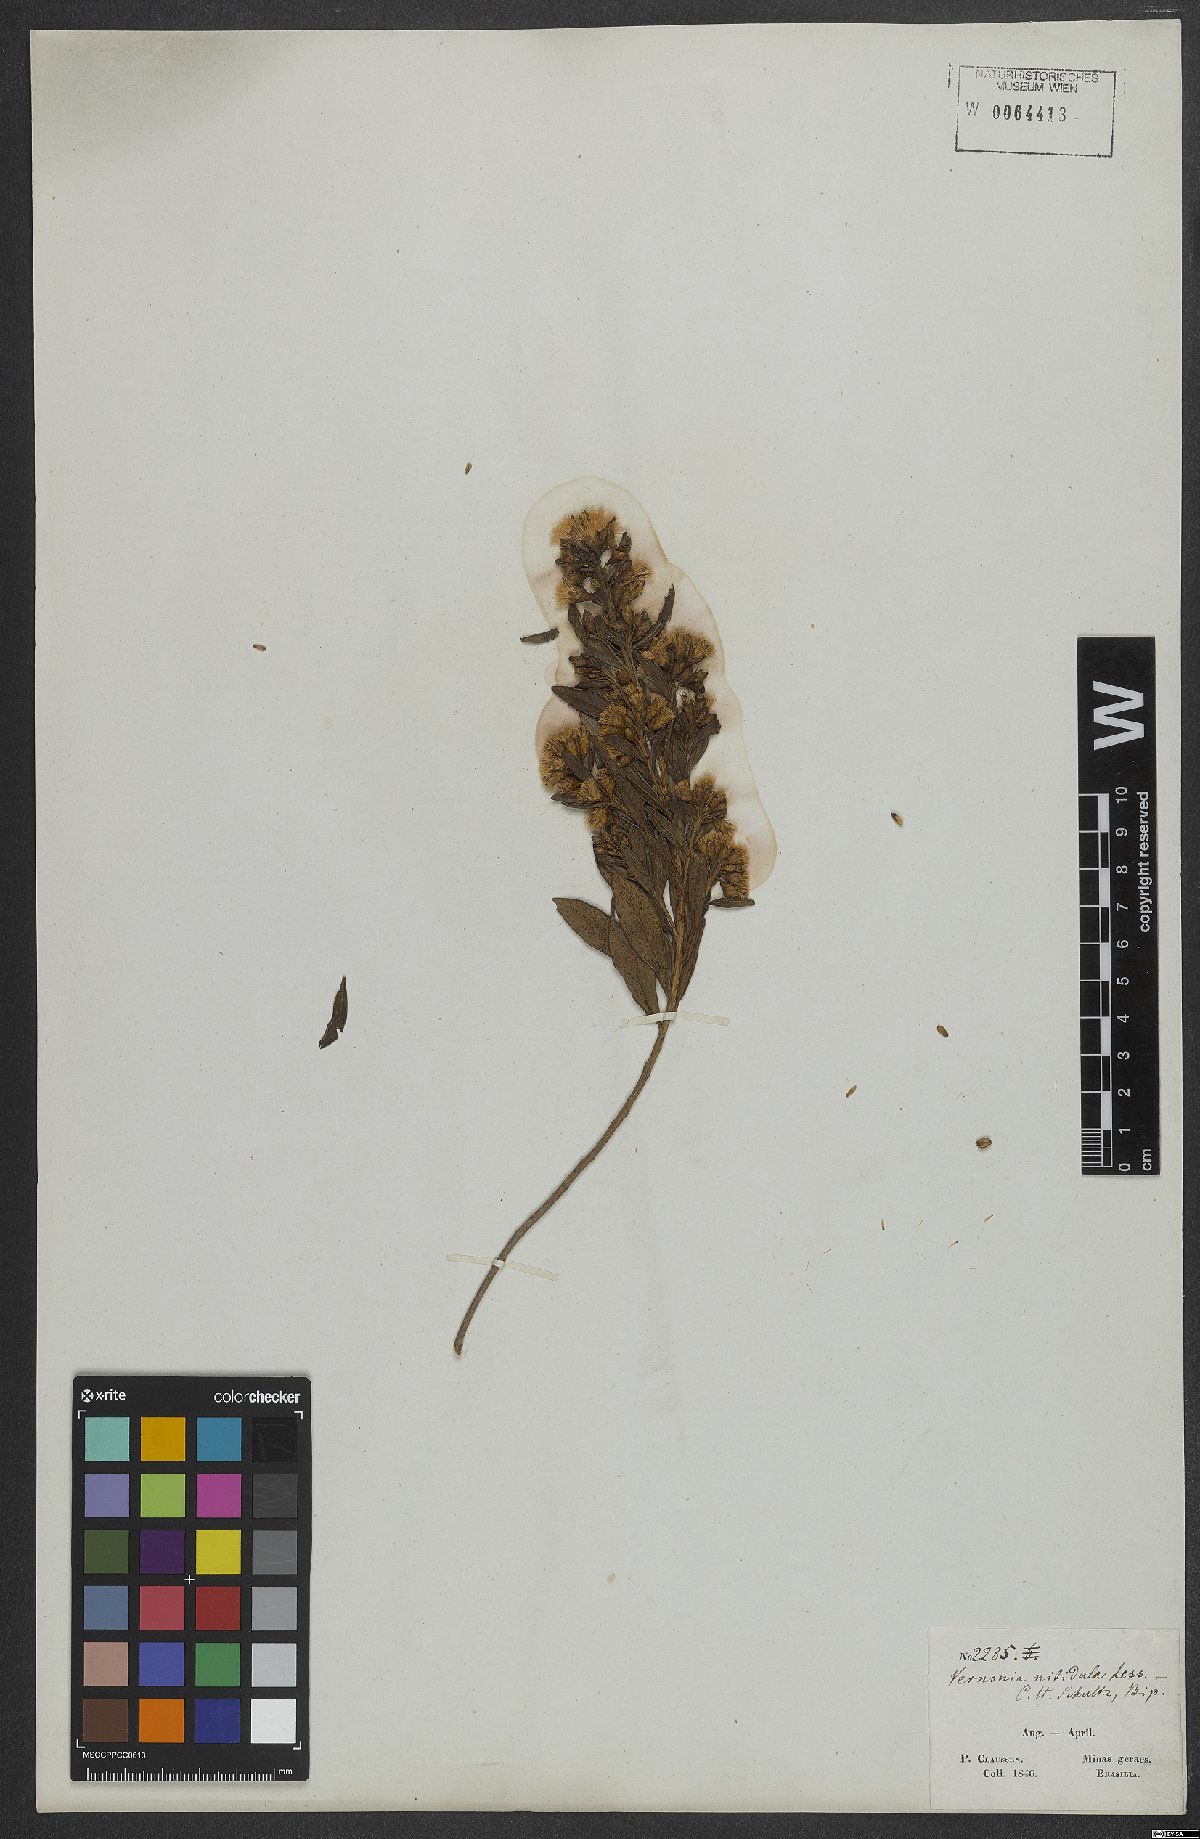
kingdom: Plantae
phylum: Tracheophyta
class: Magnoliopsida
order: Asterales
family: Asteraceae
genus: Vernonanthura
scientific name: Vernonanthura montevidensis
